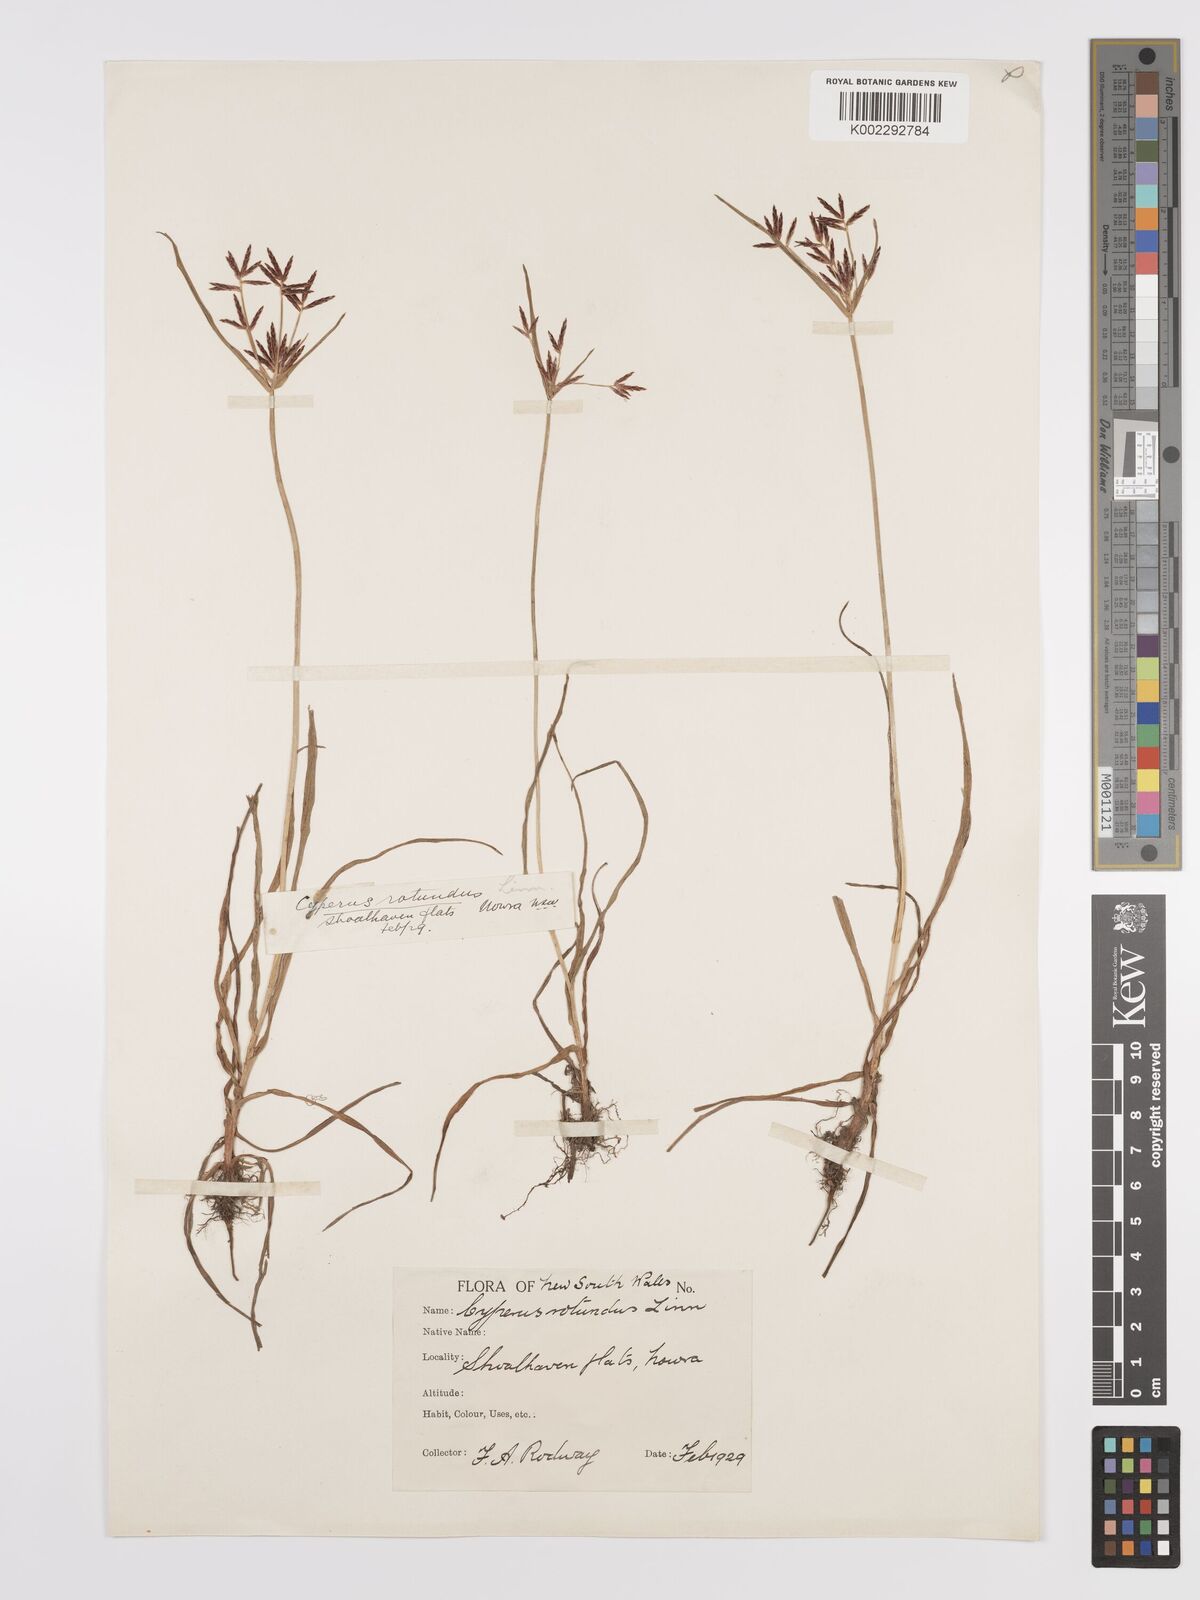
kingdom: Plantae
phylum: Tracheophyta
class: Liliopsida
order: Poales
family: Cyperaceae
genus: Cyperus
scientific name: Cyperus rotundus
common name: Nutgrass
